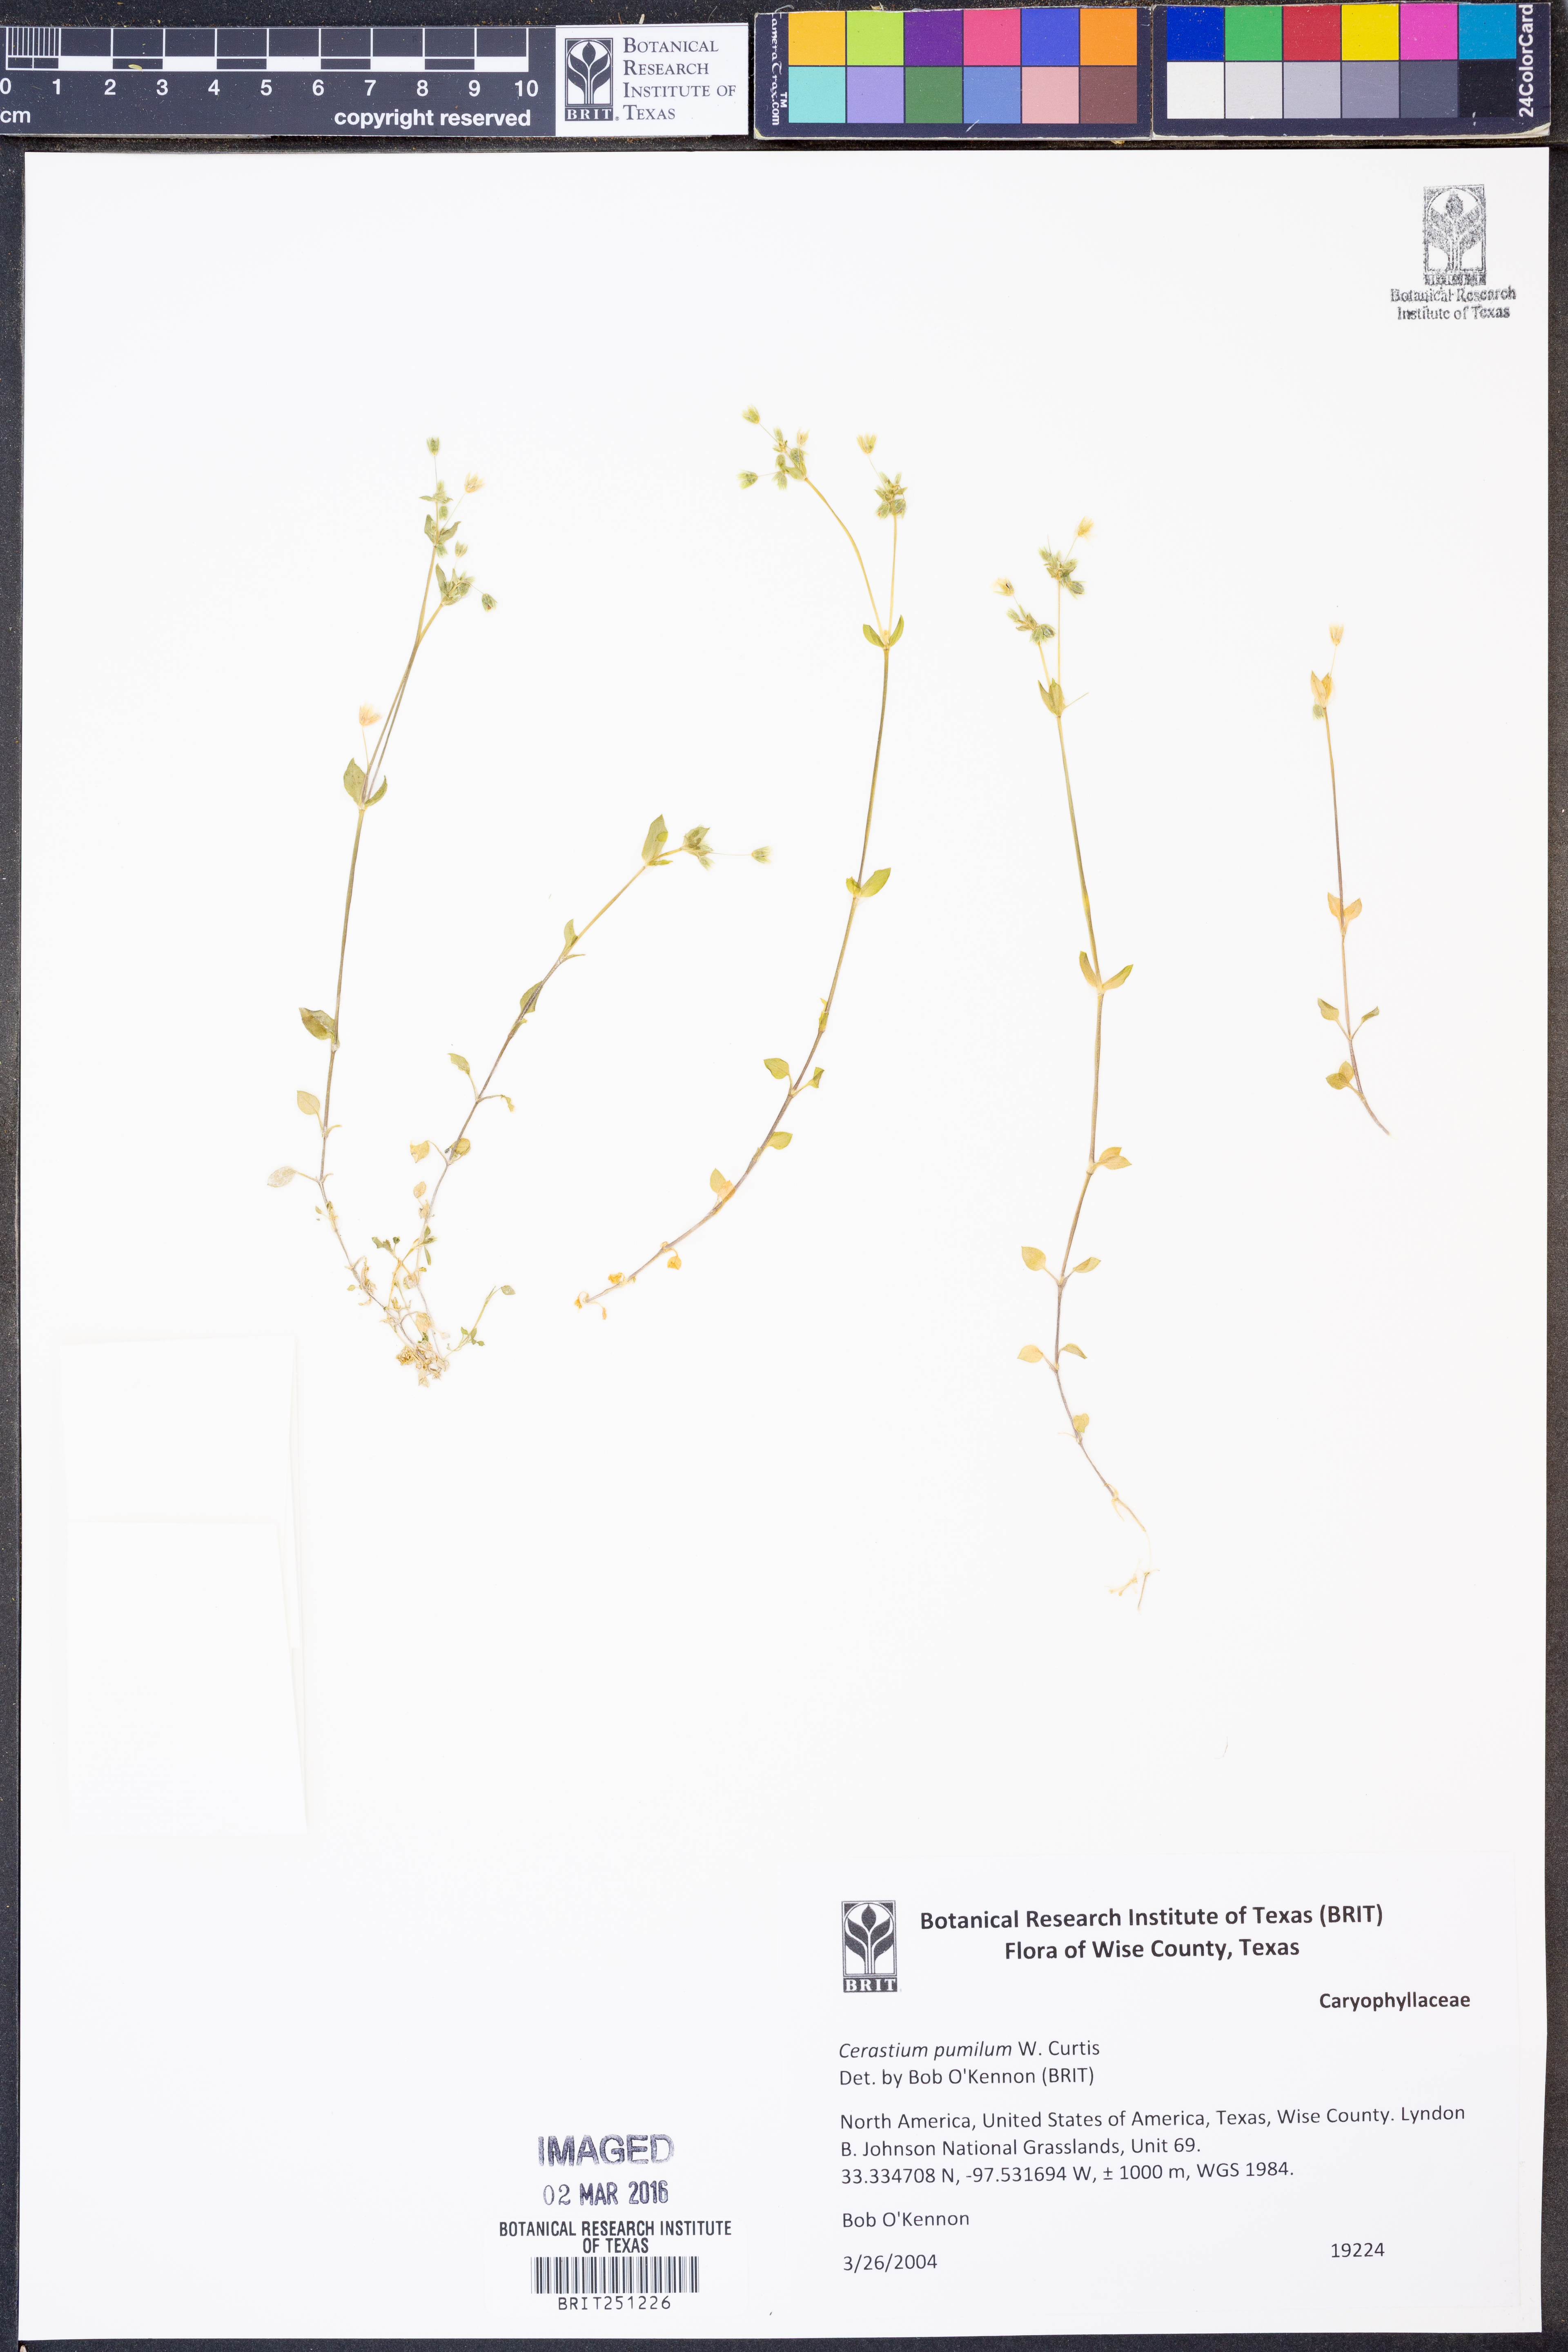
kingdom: Plantae
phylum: Tracheophyta
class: Magnoliopsida
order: Caryophyllales
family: Caryophyllaceae
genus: Cerastium
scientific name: Cerastium pumilum
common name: Dwarf mouse-ear
